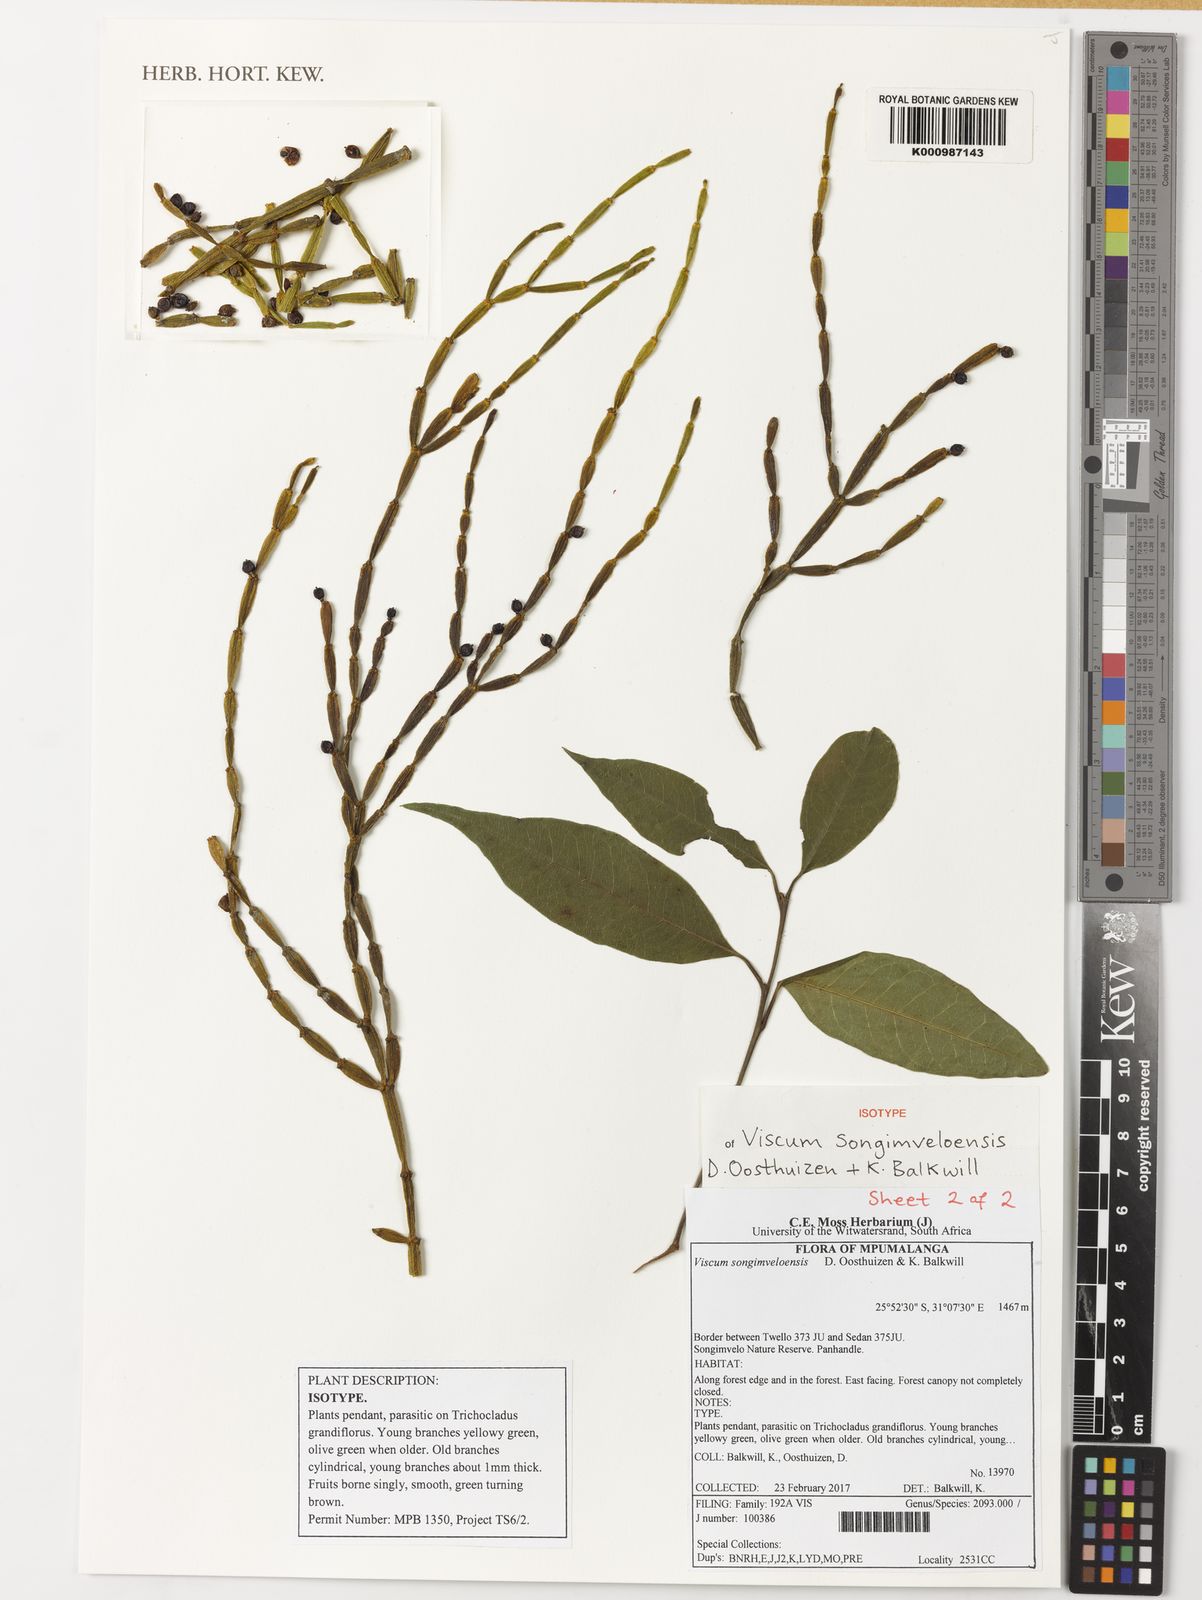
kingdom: Plantae
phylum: Tracheophyta
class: Magnoliopsida
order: Santalales
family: Viscaceae
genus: Viscum
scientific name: Viscum songimveloensis
